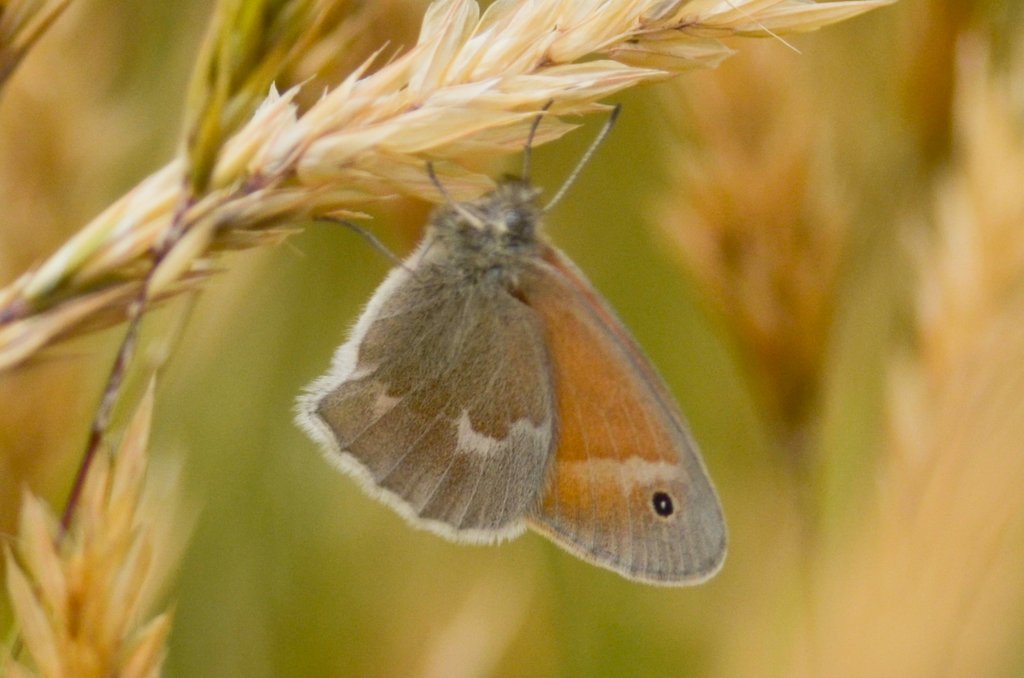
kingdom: Animalia
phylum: Arthropoda
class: Insecta
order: Lepidoptera
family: Nymphalidae
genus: Coenonympha
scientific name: Coenonympha tullia
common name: Large Heath
